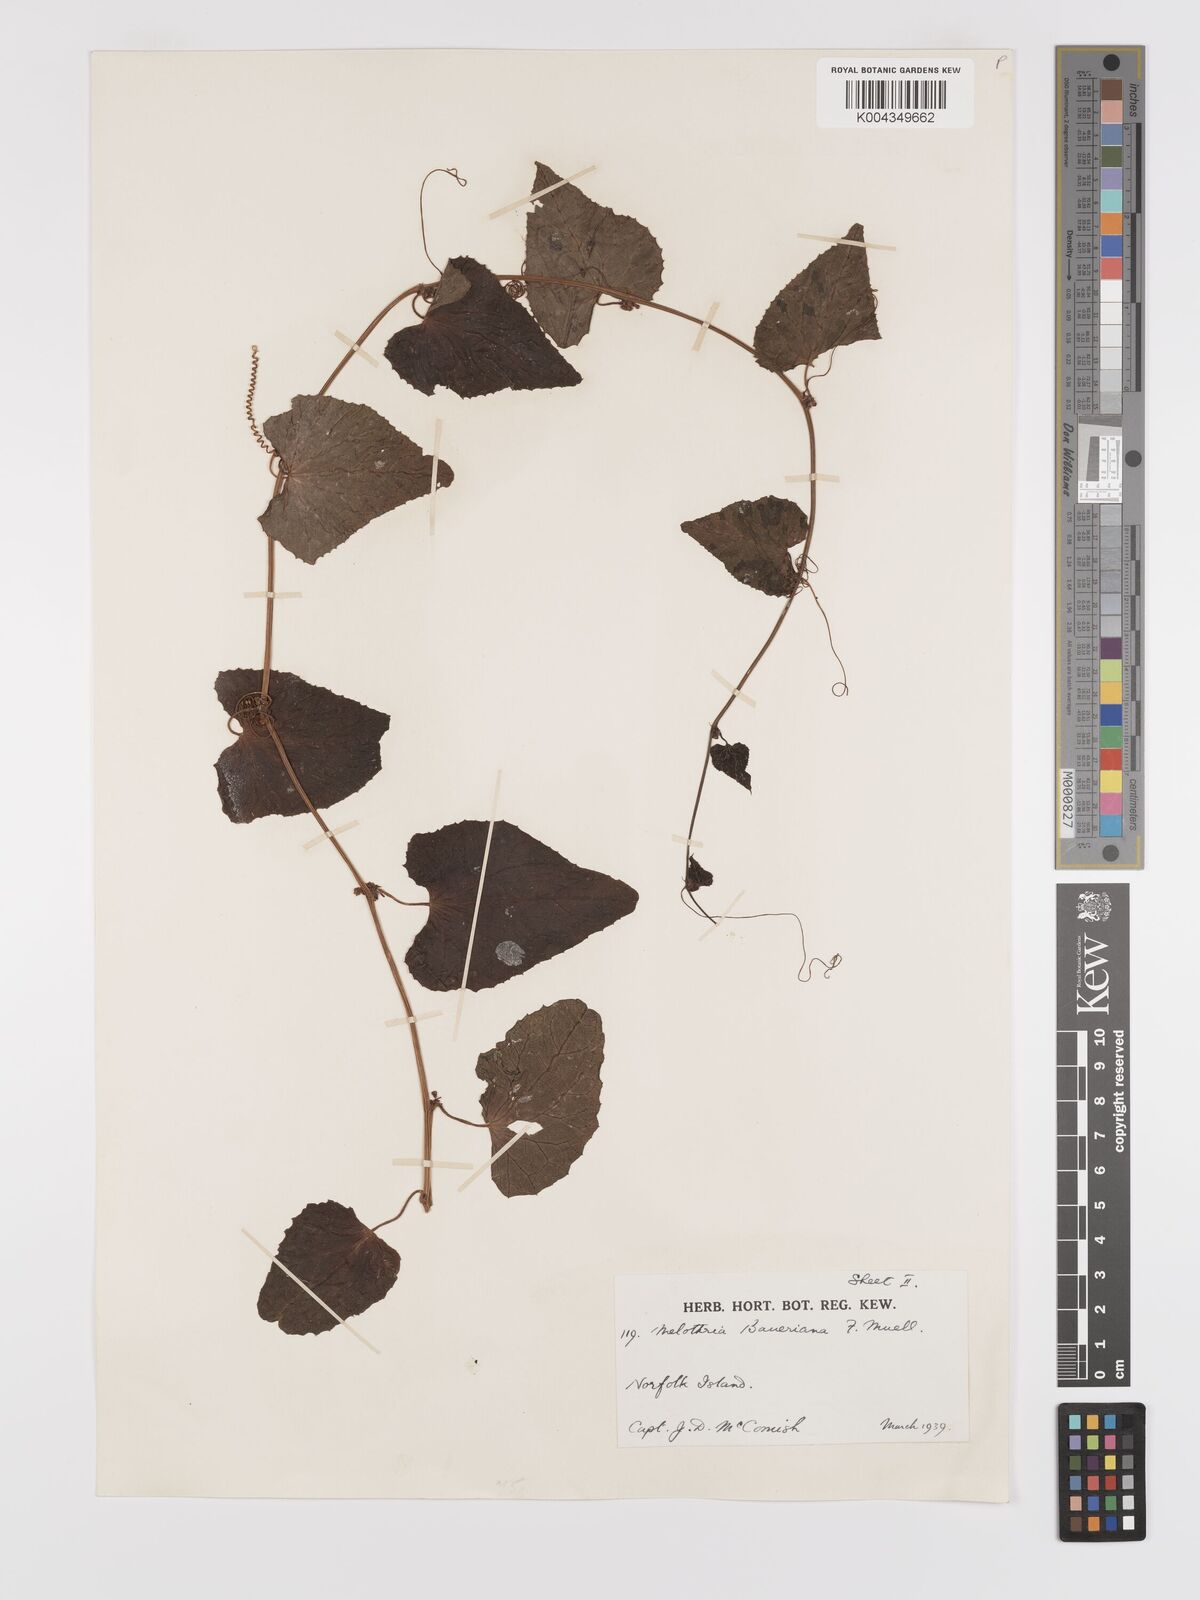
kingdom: Plantae
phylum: Tracheophyta
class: Magnoliopsida
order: Cucurbitales
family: Cucurbitaceae
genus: Zehneria
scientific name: Zehneria mucronata
